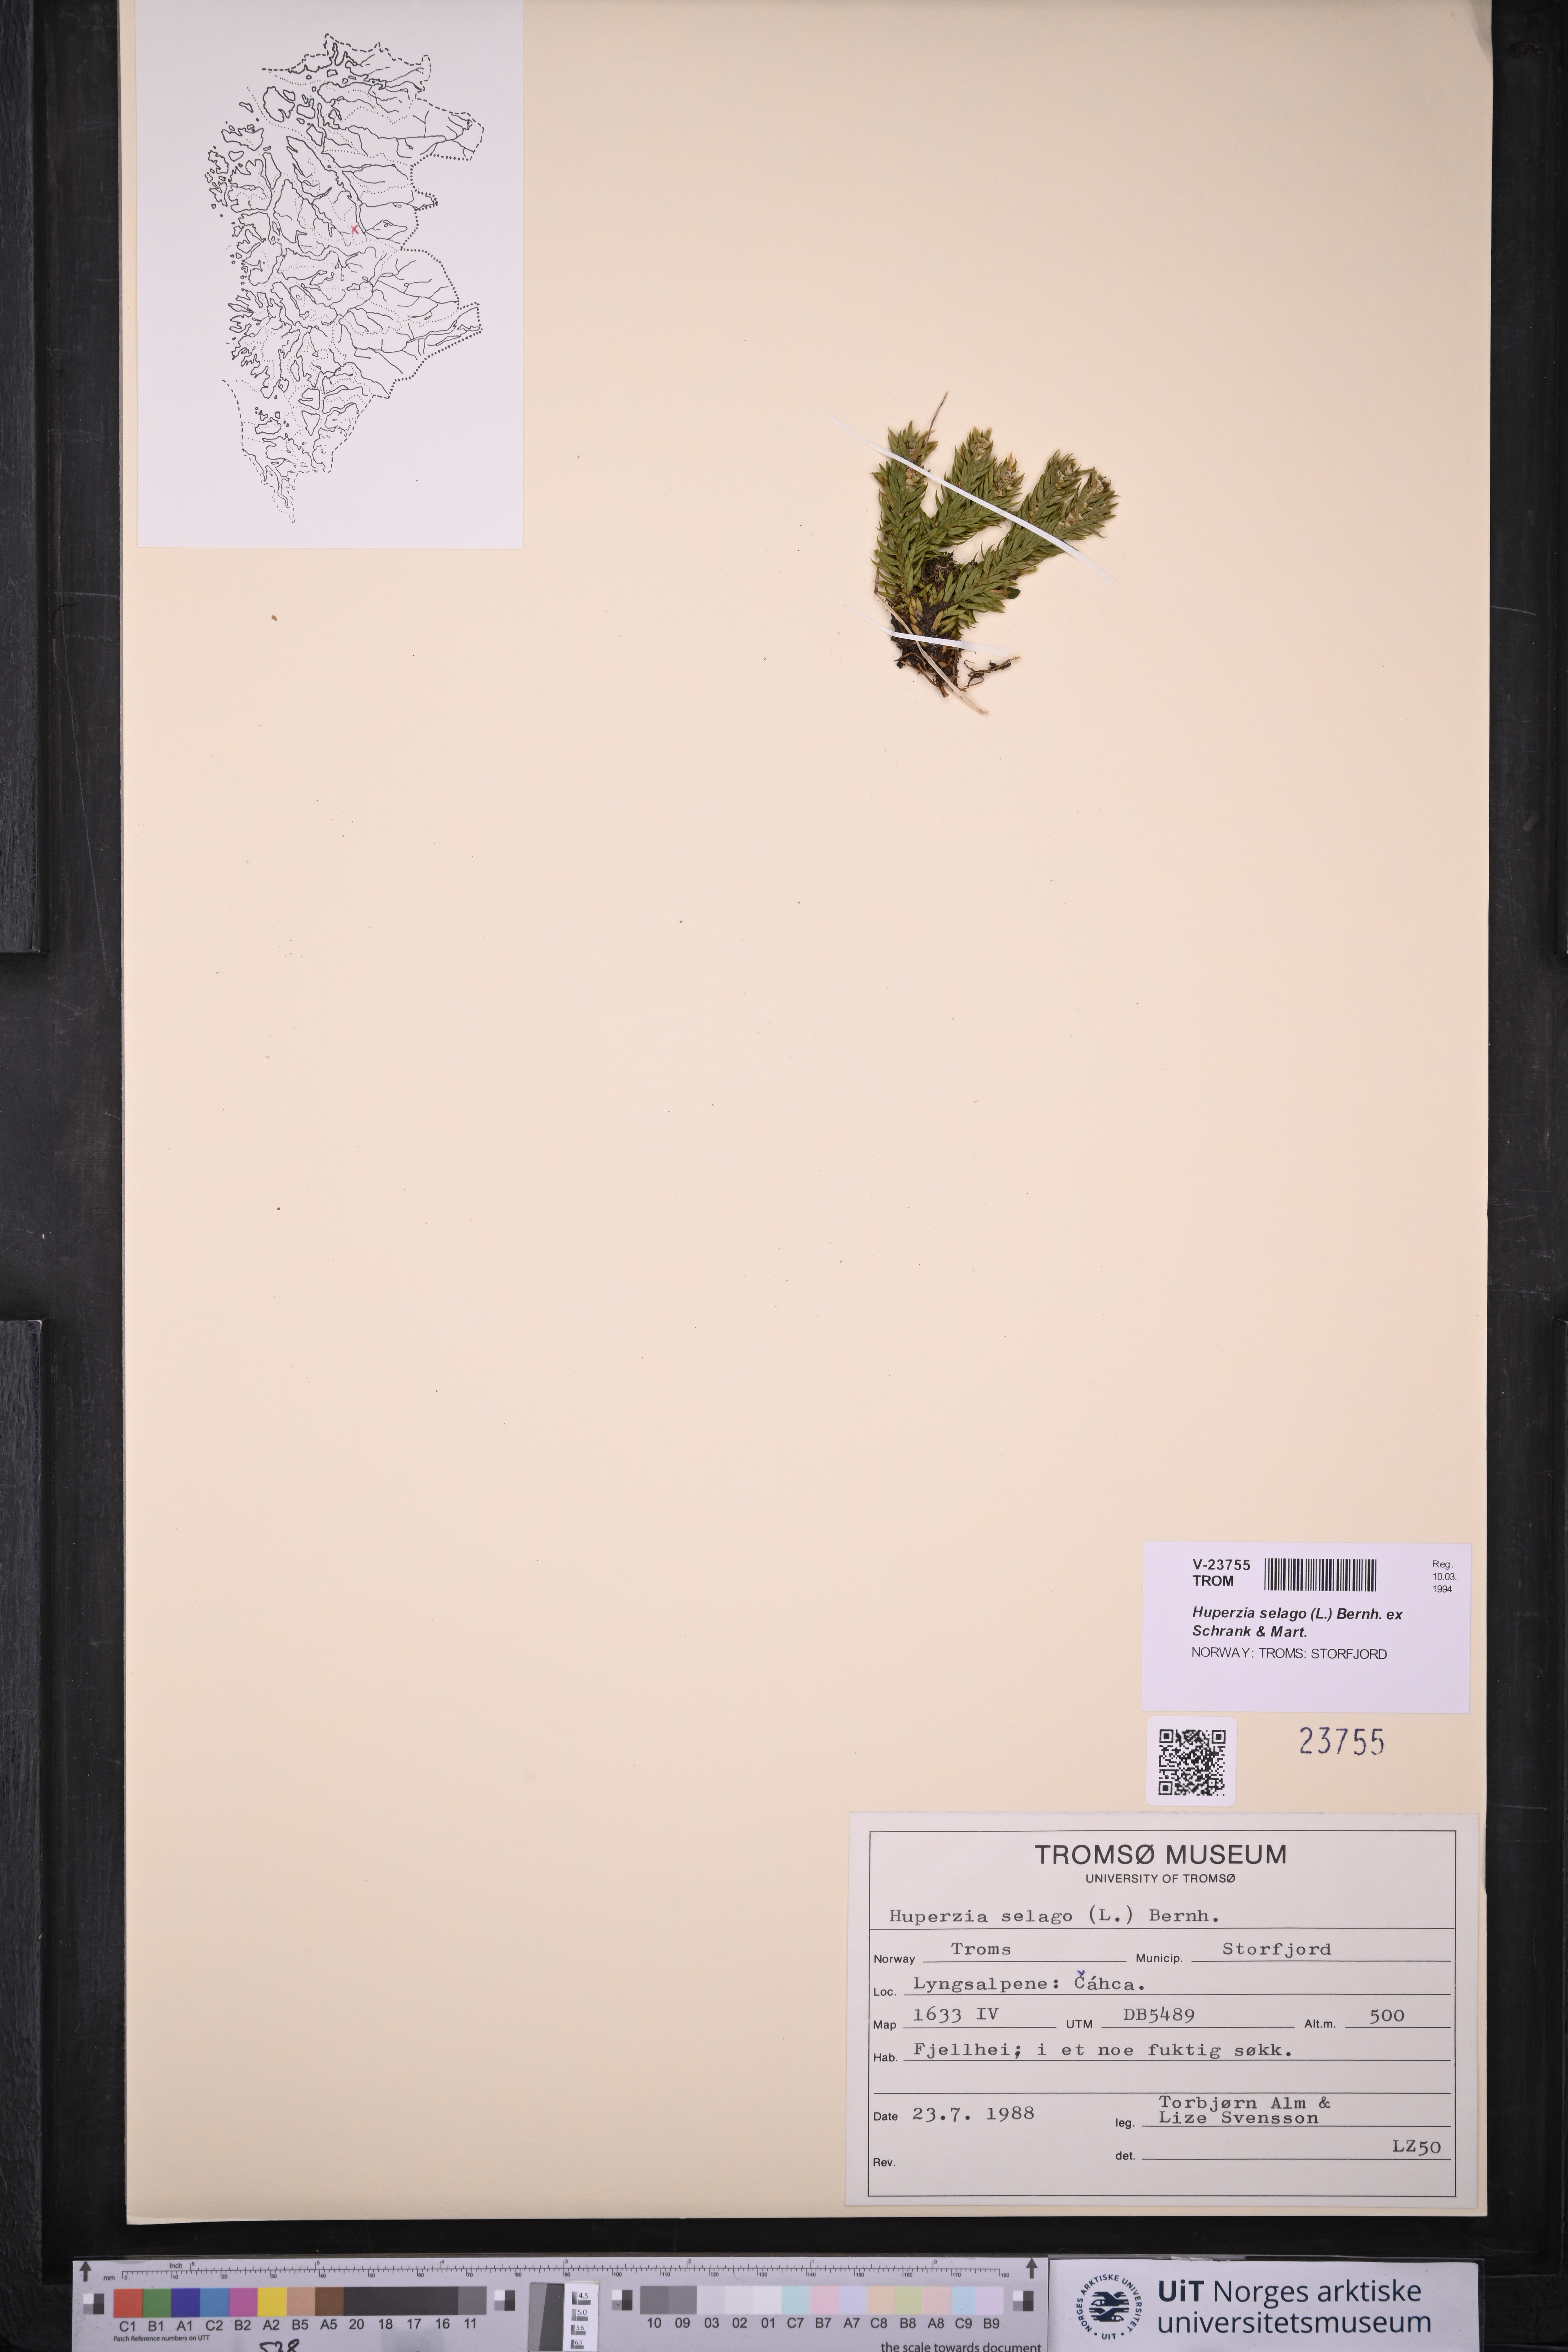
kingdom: Plantae
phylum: Tracheophyta
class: Lycopodiopsida
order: Lycopodiales
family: Lycopodiaceae
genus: Huperzia
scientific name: Huperzia selago
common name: Northern firmoss
